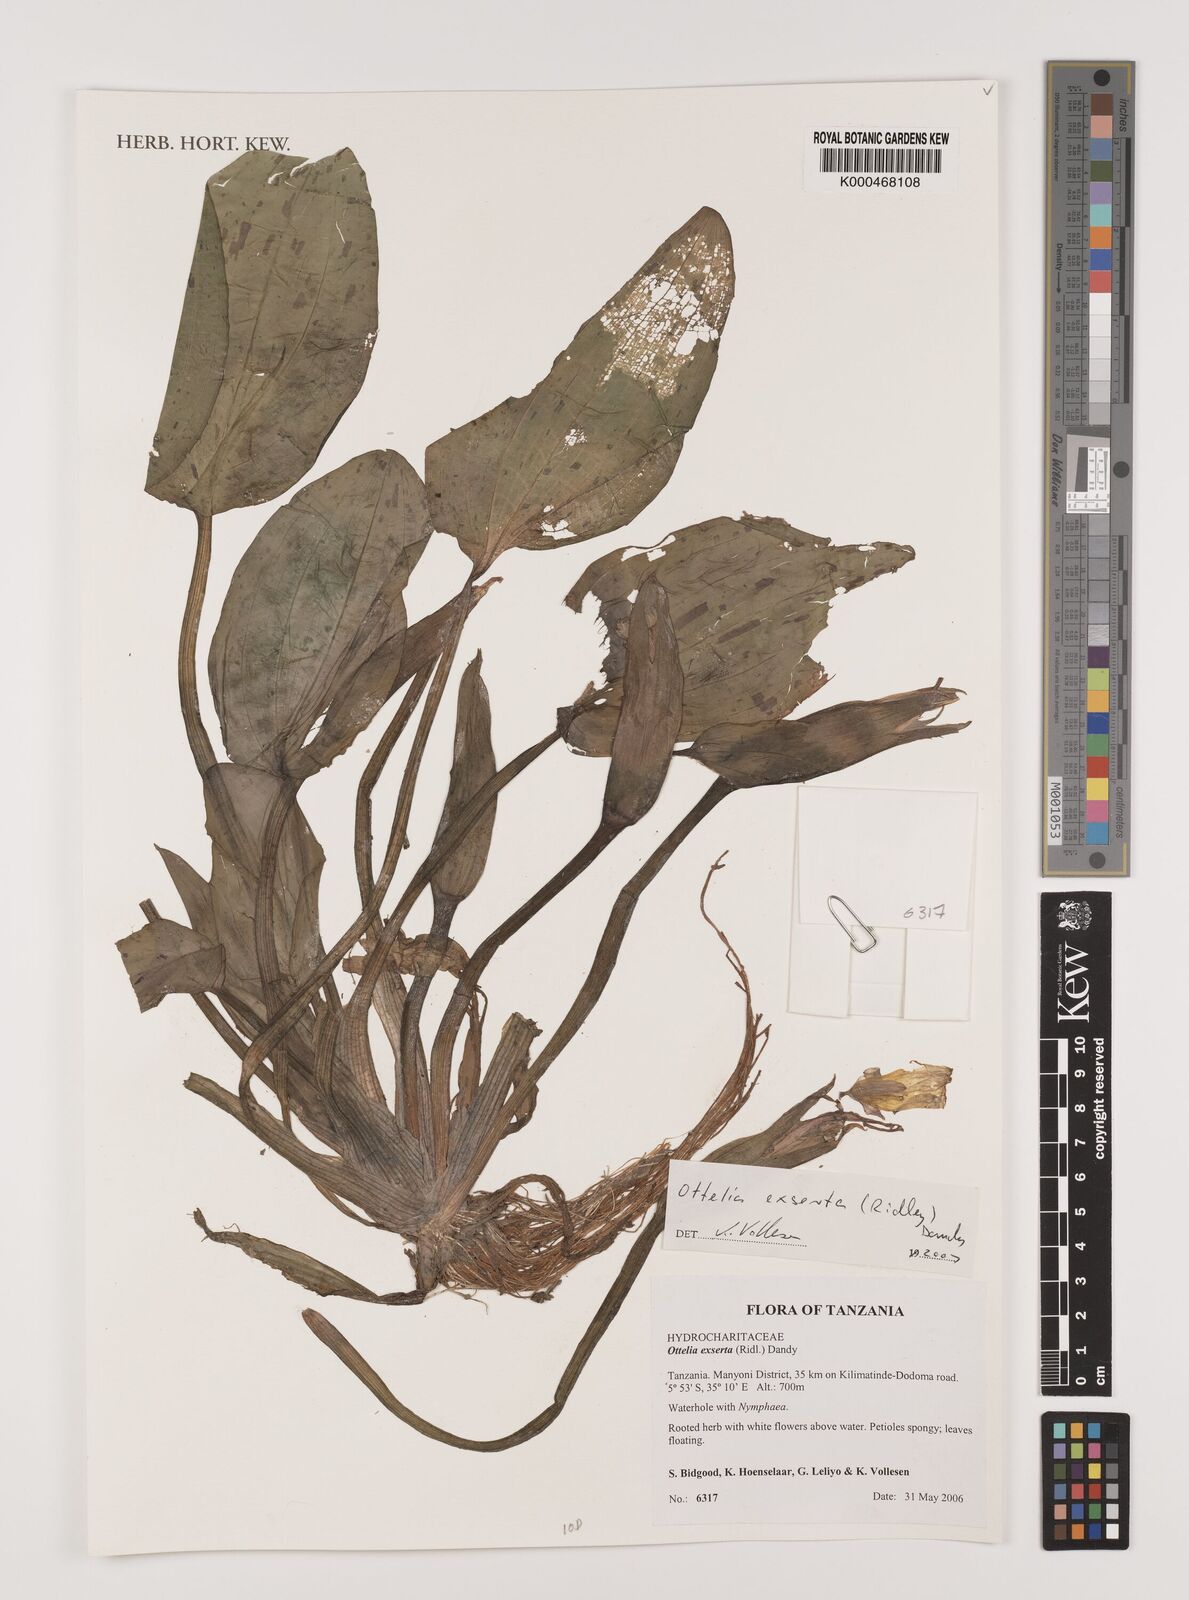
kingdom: Plantae
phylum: Tracheophyta
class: Liliopsida
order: Alismatales
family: Hydrocharitaceae
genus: Ottelia
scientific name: Ottelia exserta
